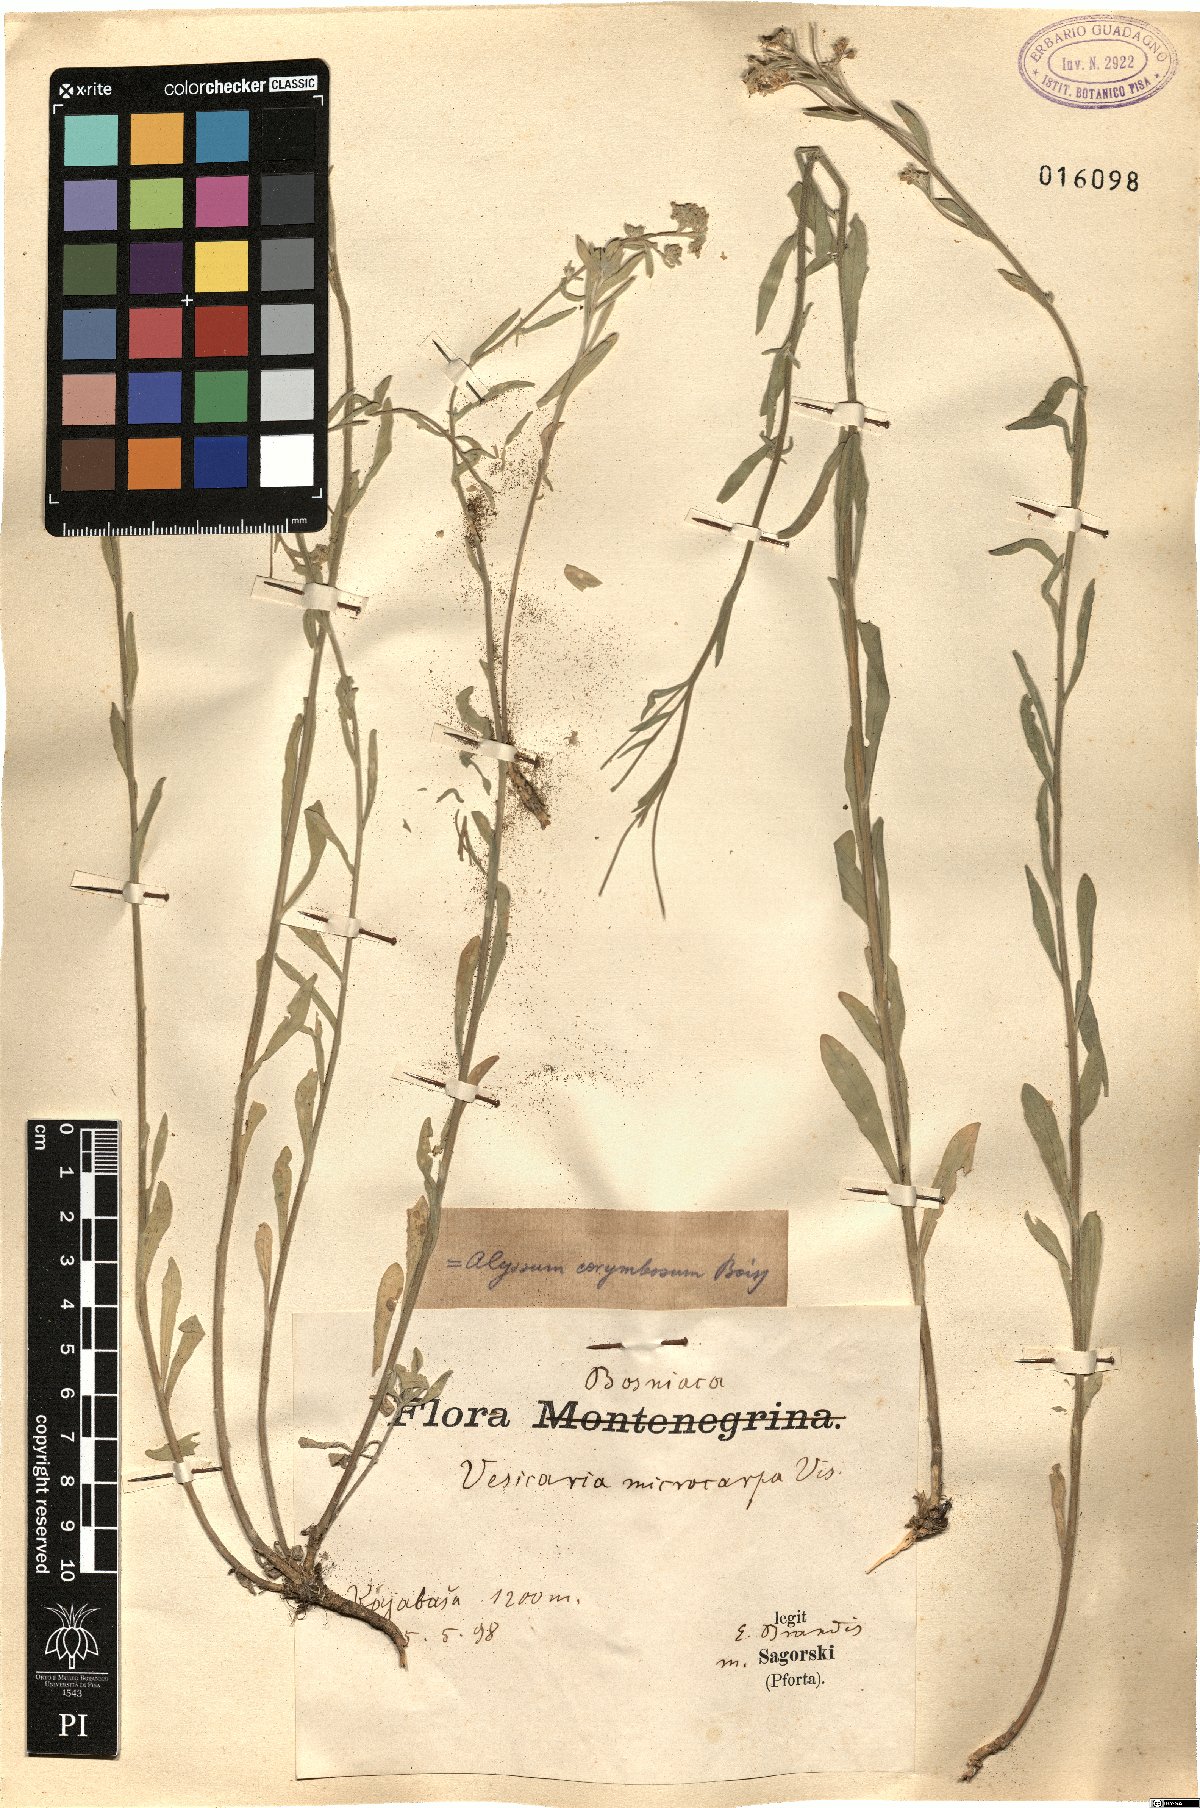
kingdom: Plantae
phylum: Tracheophyta
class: Magnoliopsida
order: Brassicales
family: Brassicaceae
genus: Aurinia
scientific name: Aurinia corymbosa
